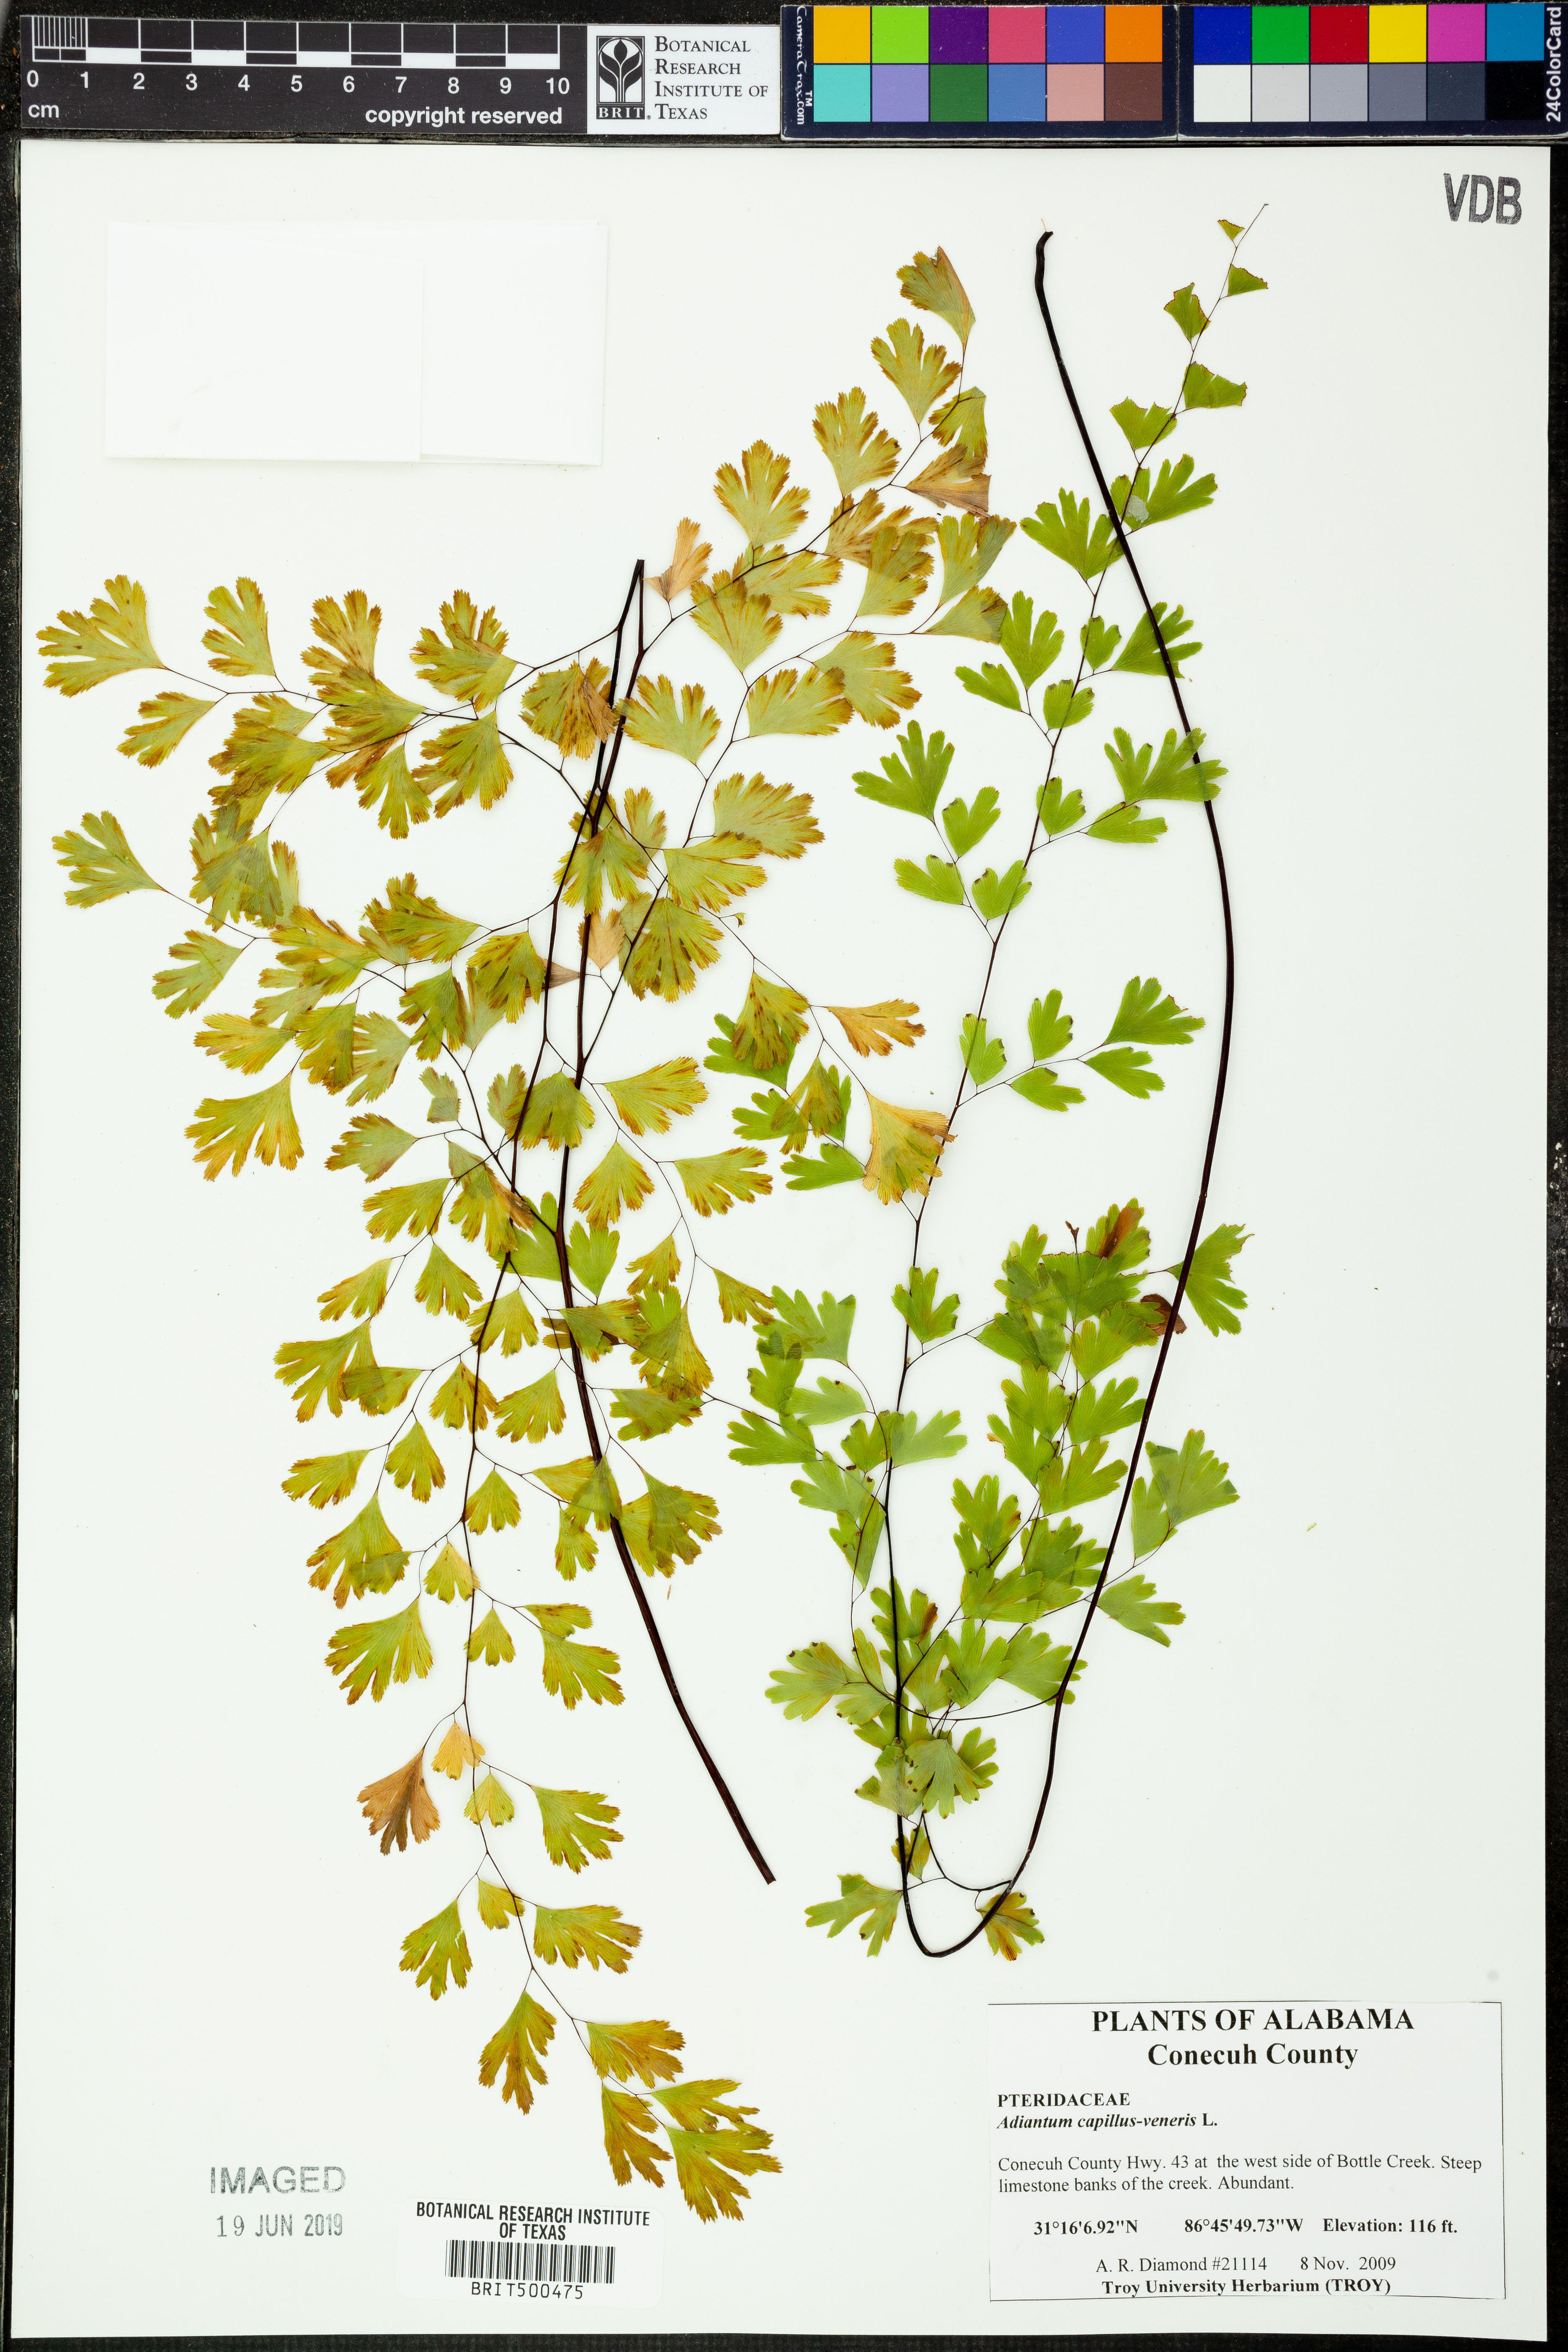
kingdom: Plantae
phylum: Tracheophyta
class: Polypodiopsida
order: Polypodiales
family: Pteridaceae
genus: Adiantum
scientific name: Adiantum capillus-veneris
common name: Maidenhair fern
